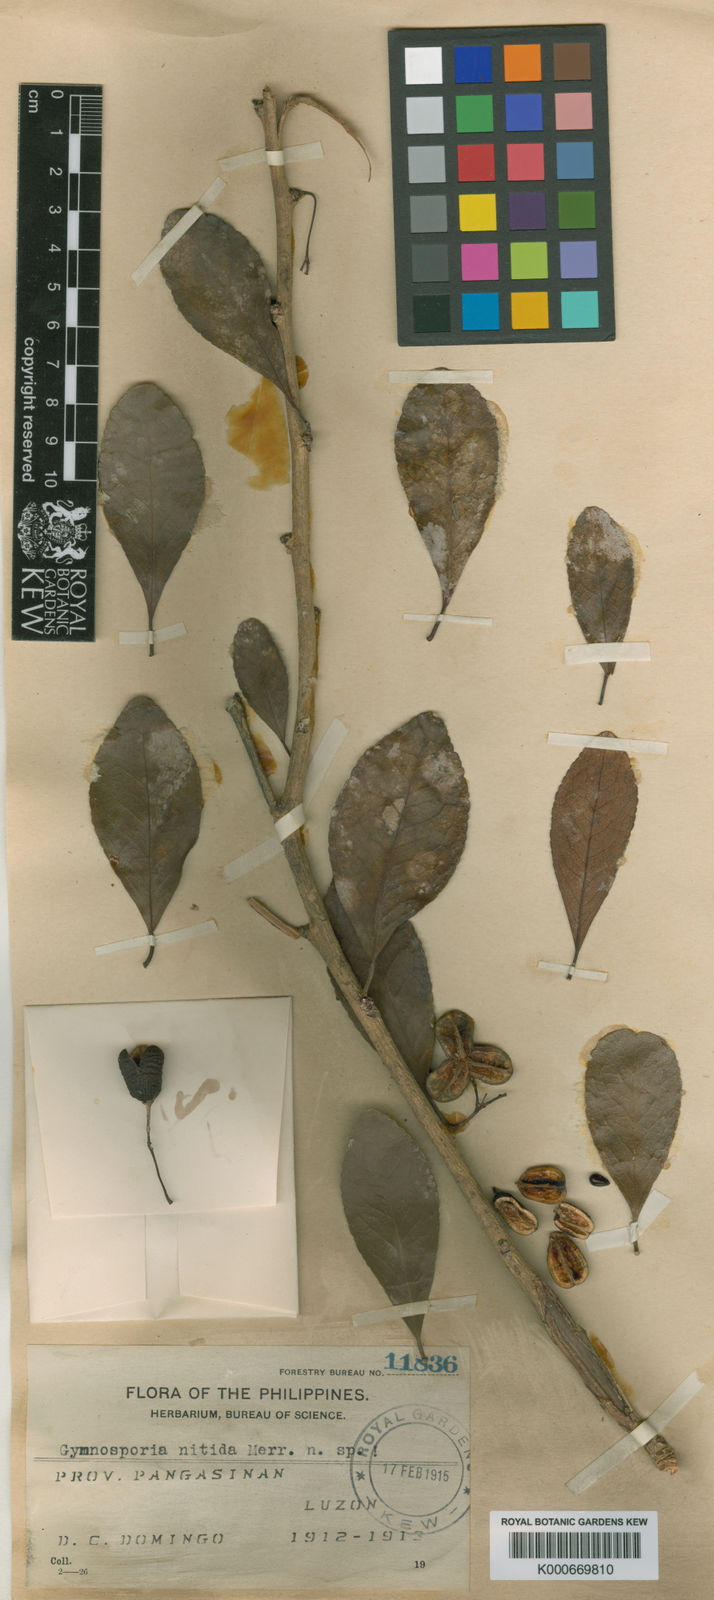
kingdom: Plantae
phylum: Tracheophyta
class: Magnoliopsida
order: Celastrales
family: Celastraceae
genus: Gymnosporia
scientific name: Gymnosporia nitida
